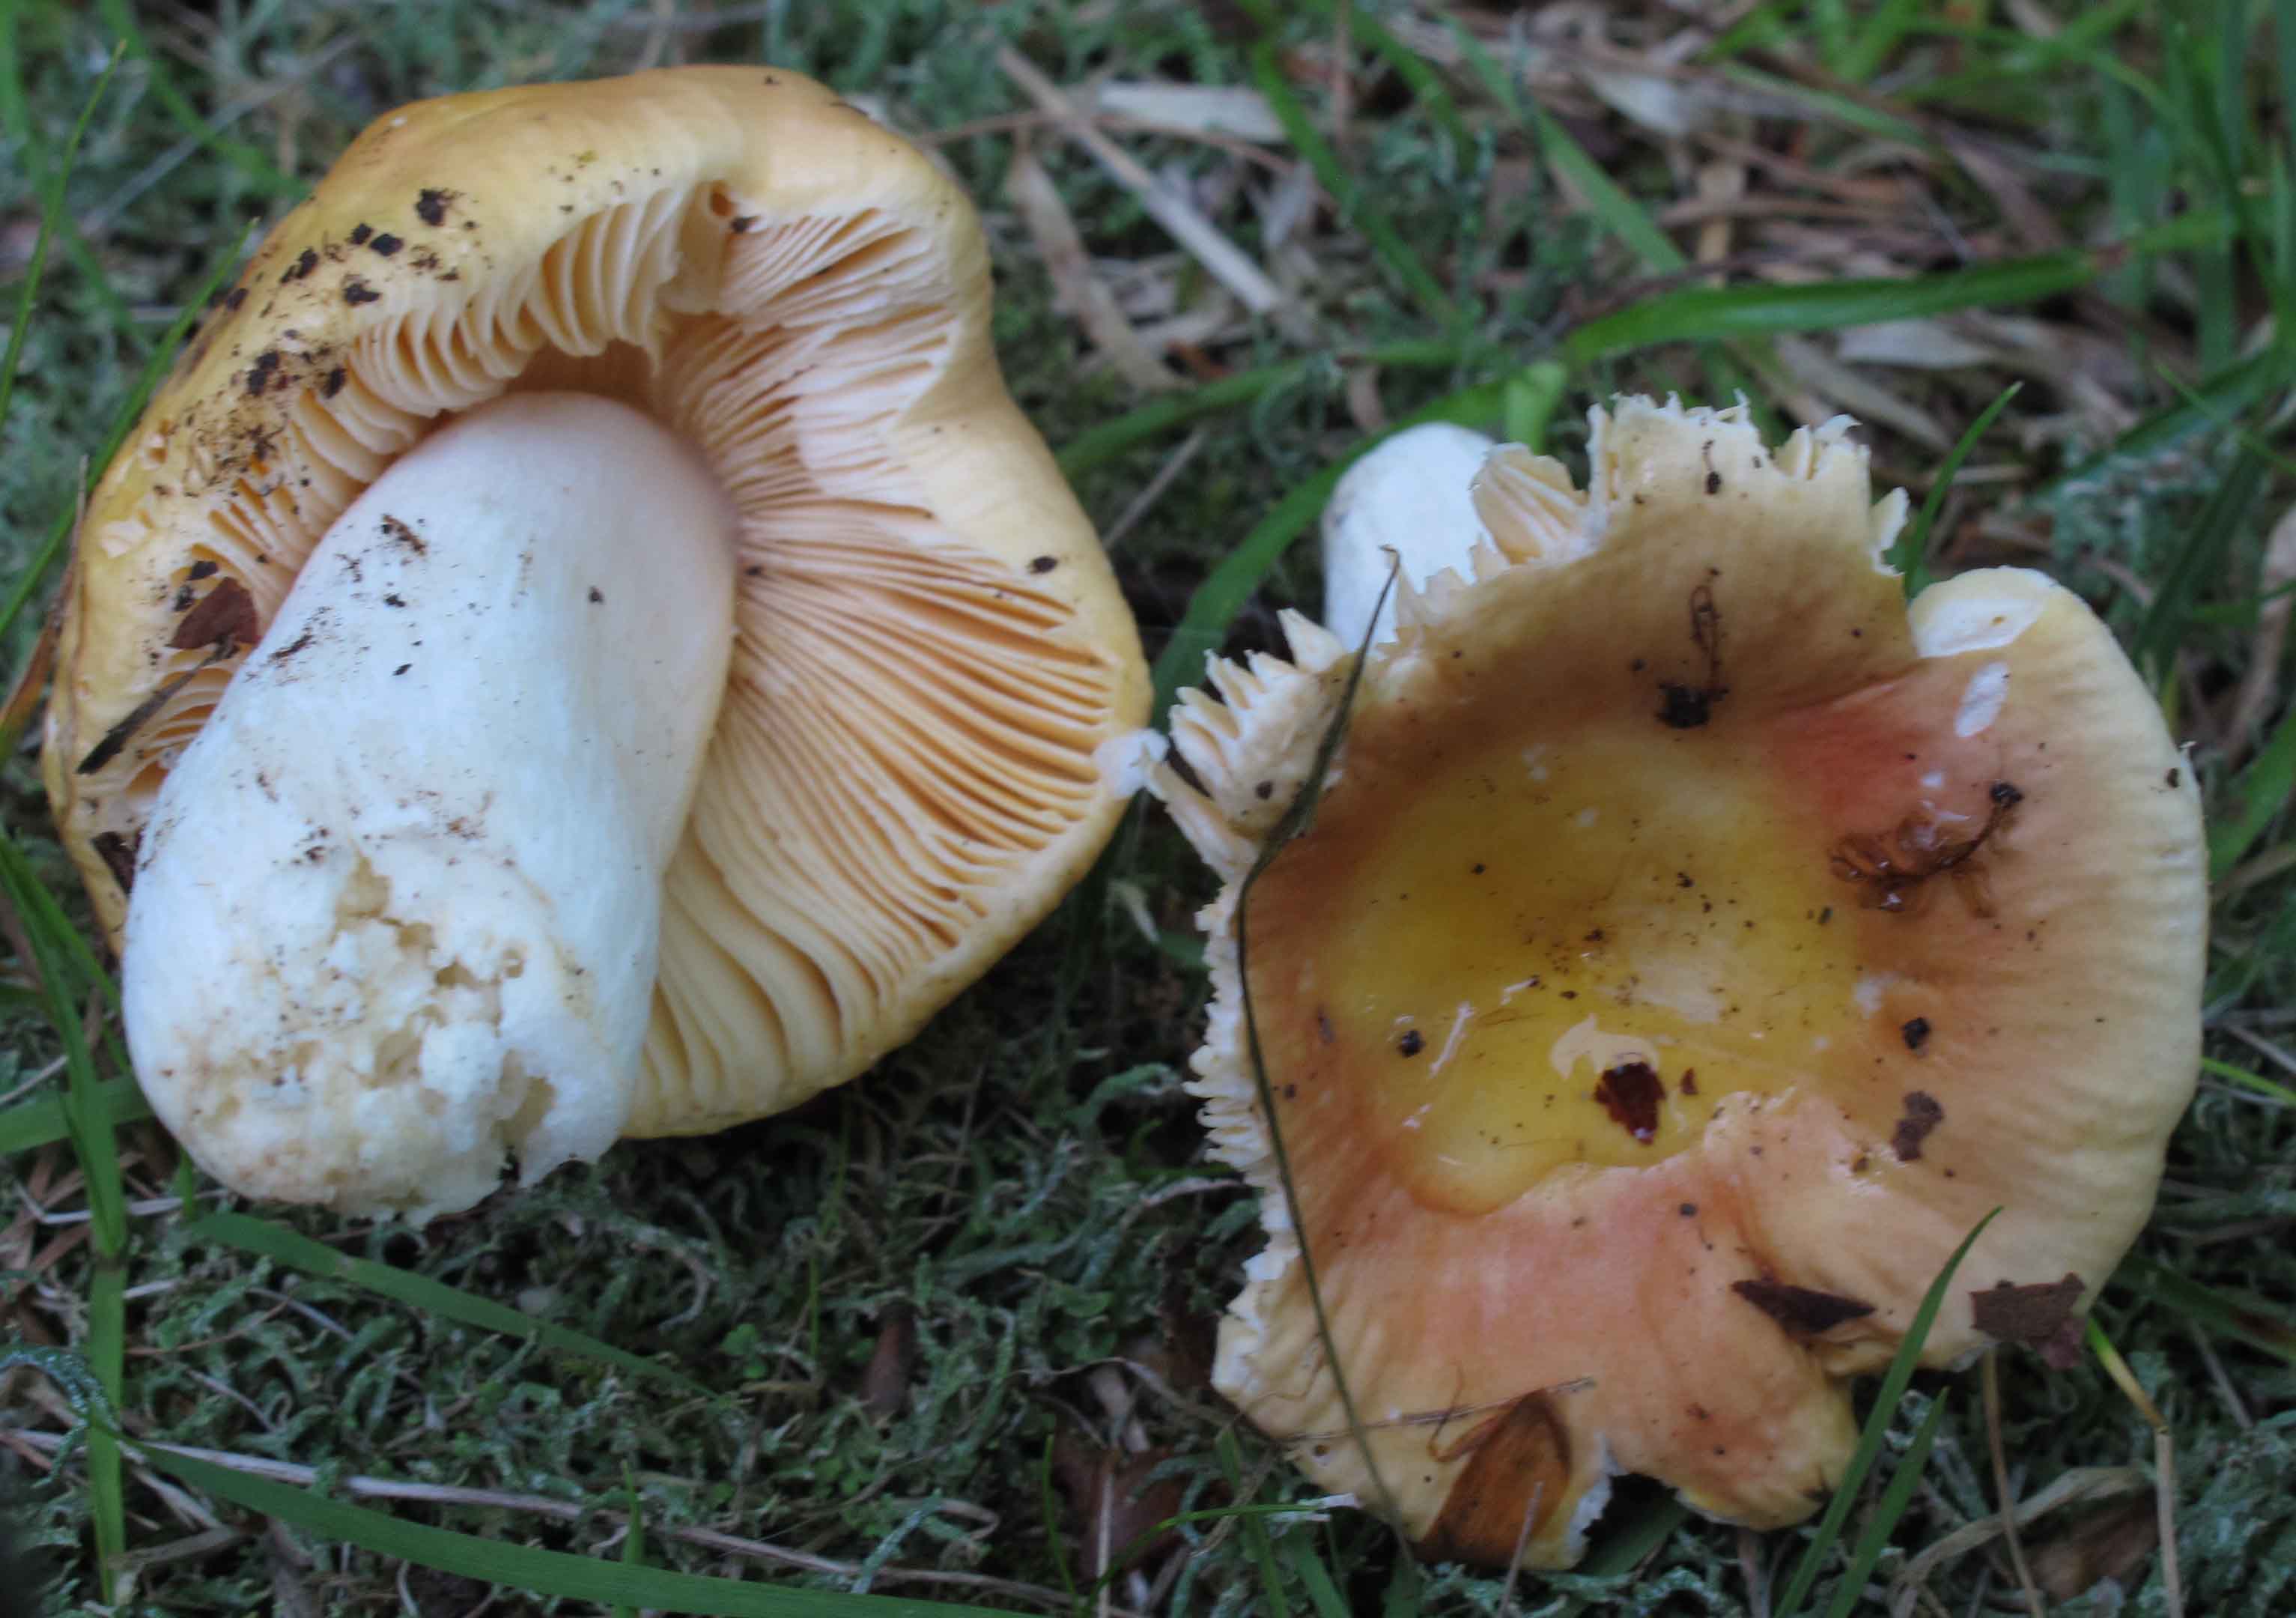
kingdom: Fungi
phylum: Basidiomycota
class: Agaricomycetes
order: Russulales
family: Russulaceae
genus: Russula
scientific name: Russula risigallina
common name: abrikos-skørhat
